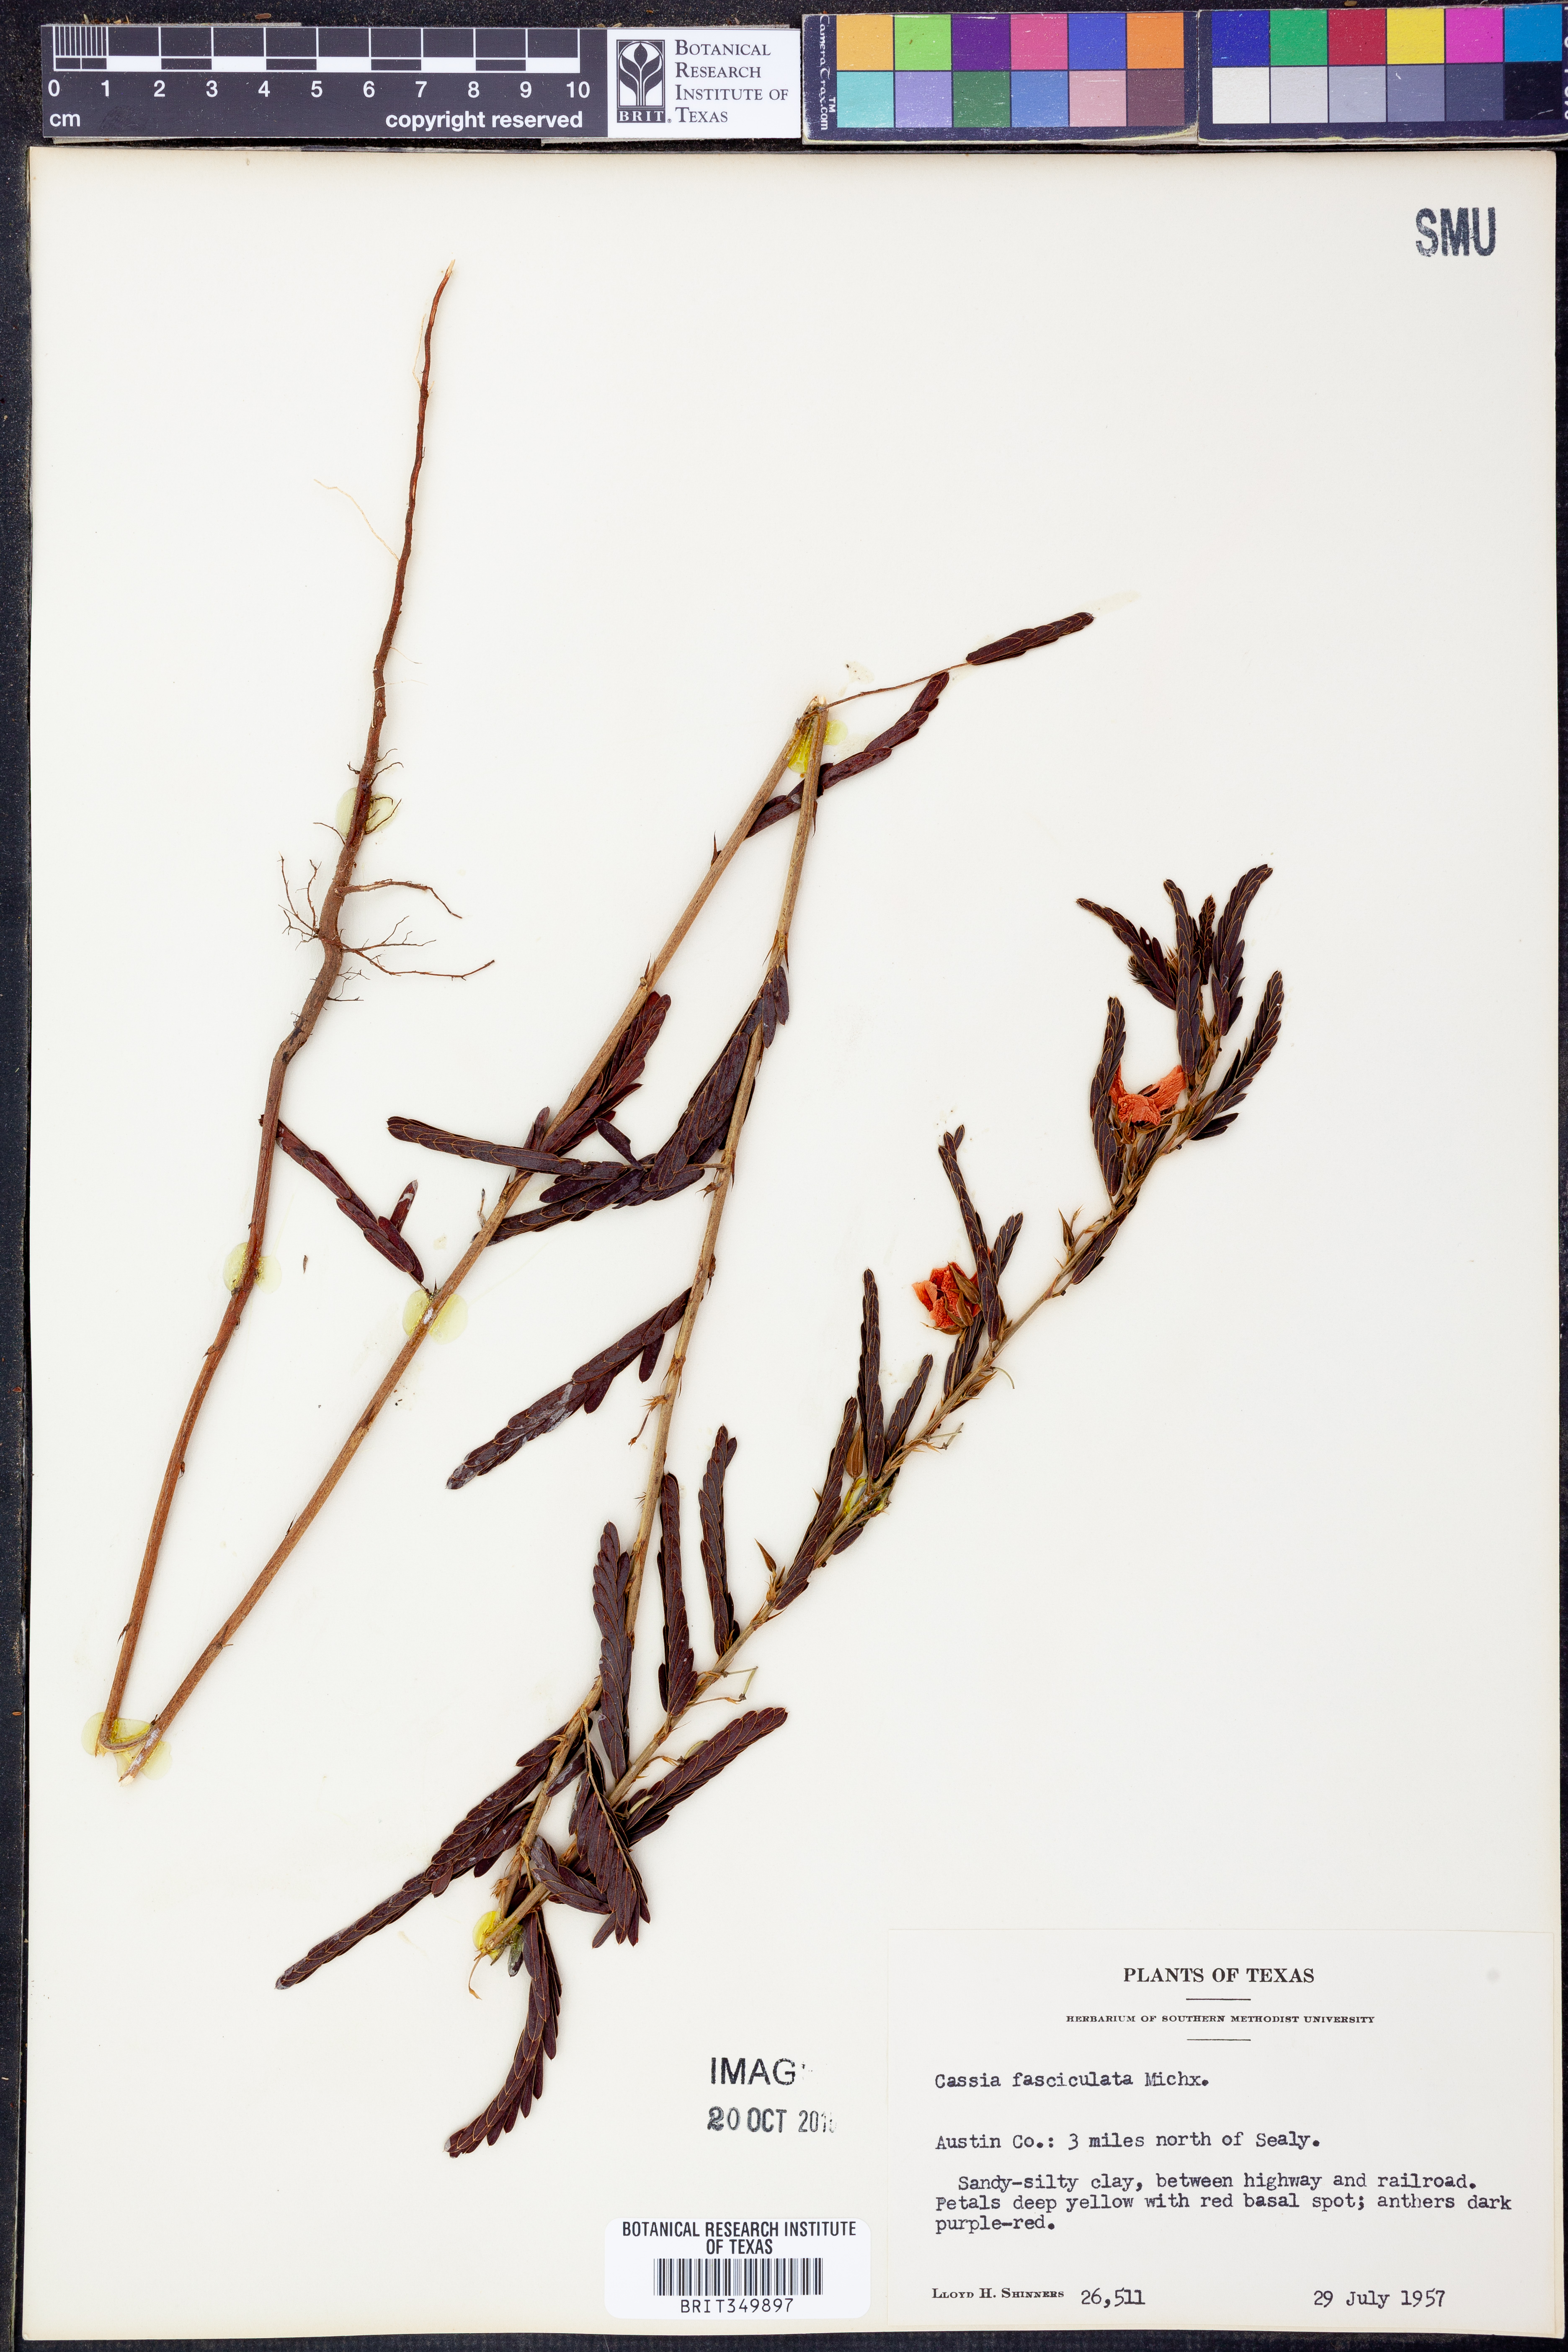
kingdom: Plantae
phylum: Tracheophyta
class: Magnoliopsida
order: Fabales
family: Fabaceae
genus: Chamaecrista
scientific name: Chamaecrista fasciculata
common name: Golden cassia
